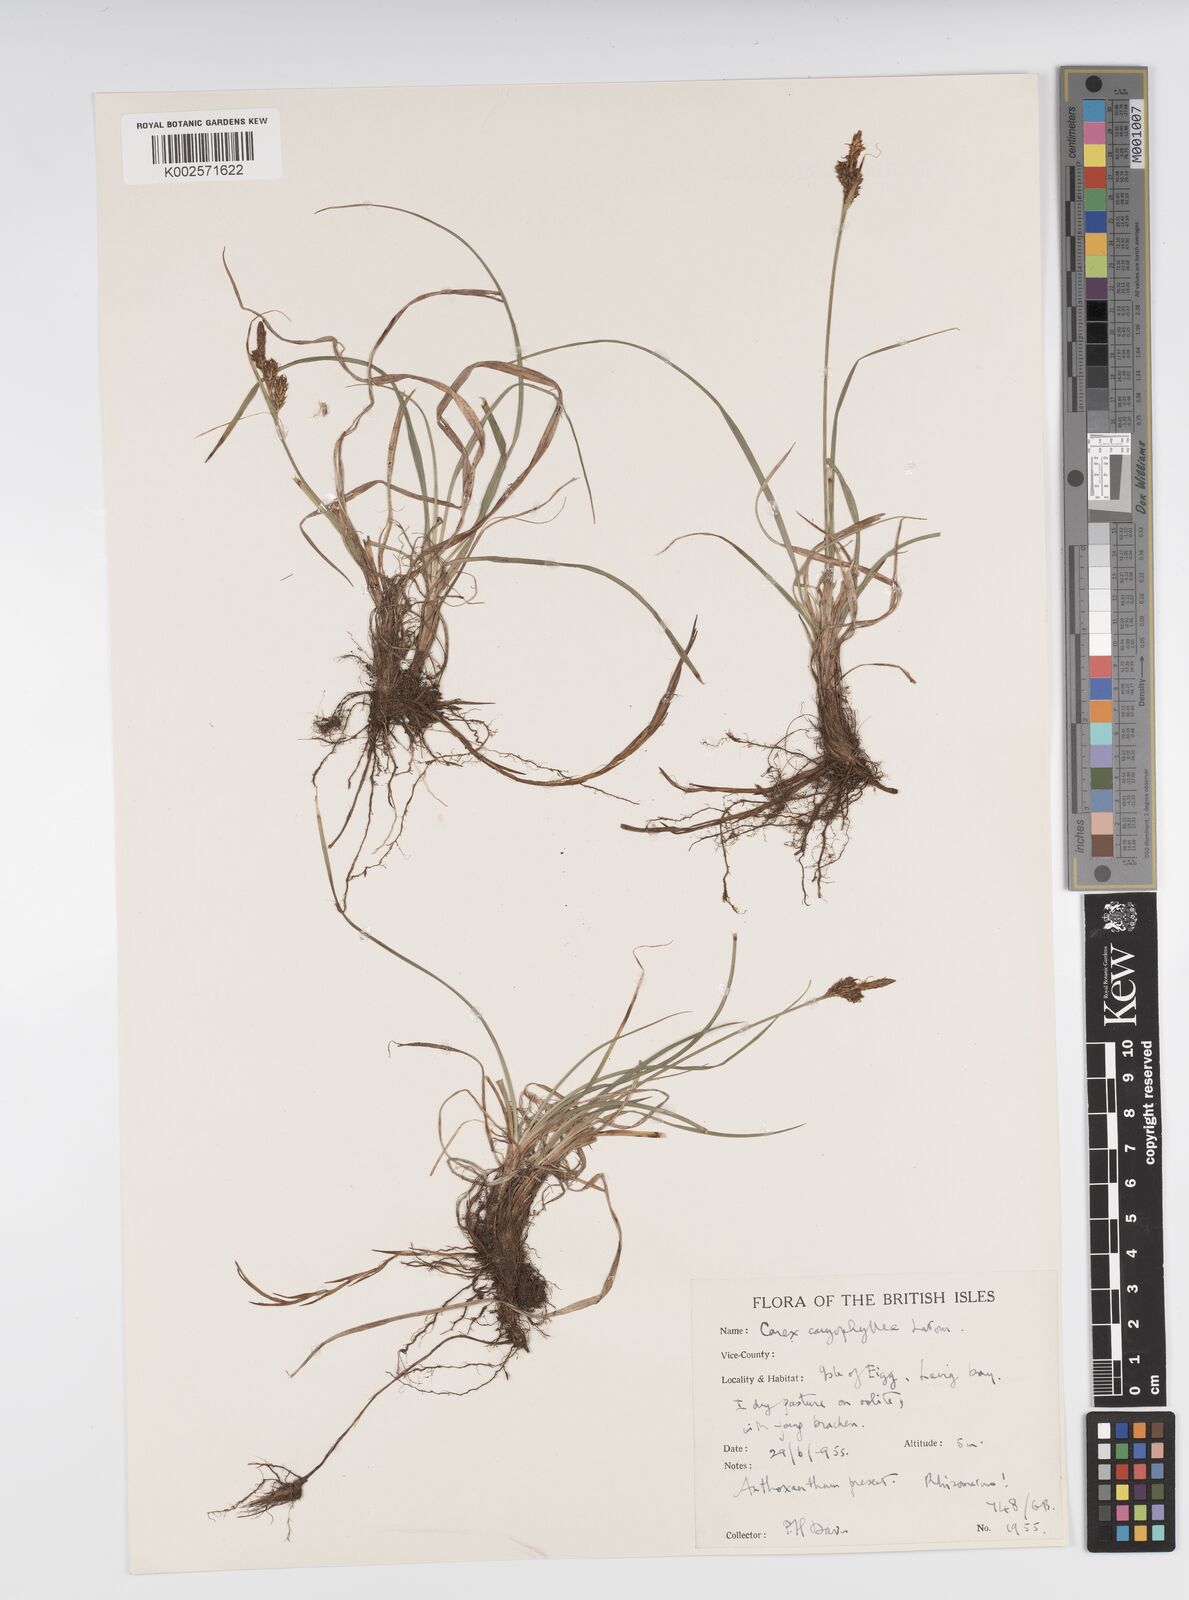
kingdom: Plantae
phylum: Tracheophyta
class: Liliopsida
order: Poales
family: Cyperaceae
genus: Carex
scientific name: Carex caryophyllea
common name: Spring sedge
